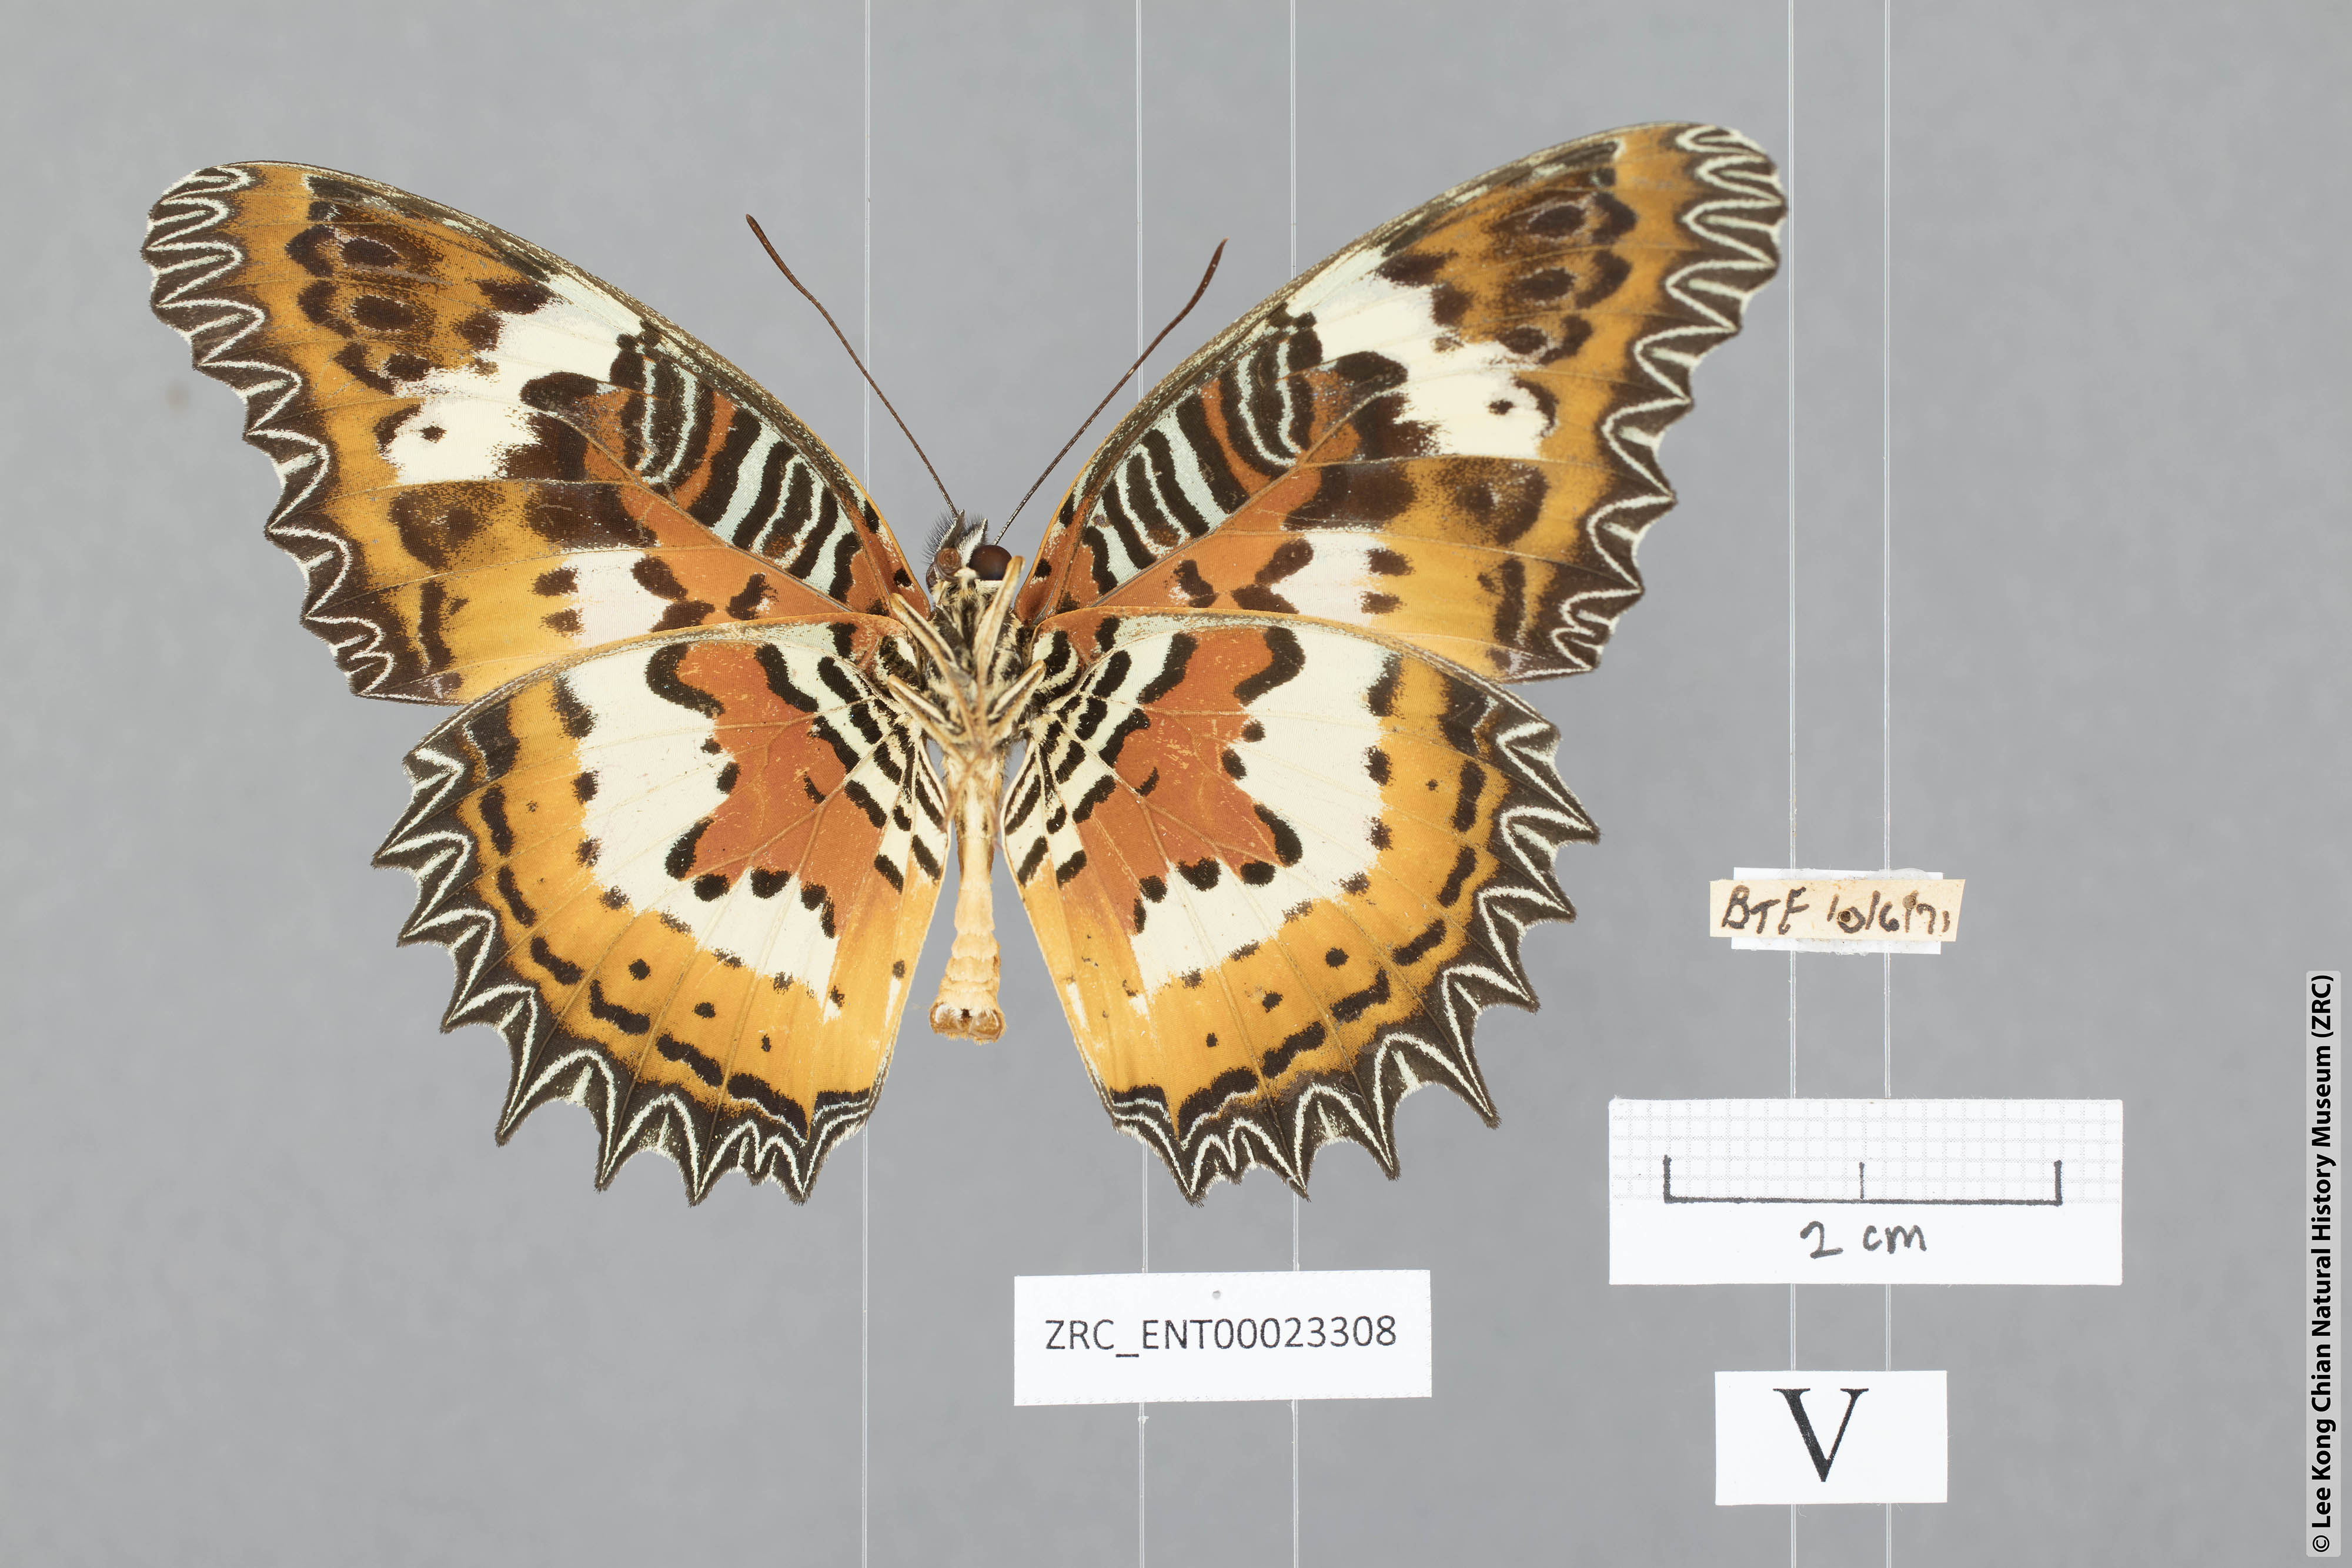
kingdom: Animalia
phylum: Arthropoda
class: Insecta
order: Lepidoptera
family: Nymphalidae
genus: Cethosia
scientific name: Cethosia hypsea
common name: Malayan lacewing butterfly
